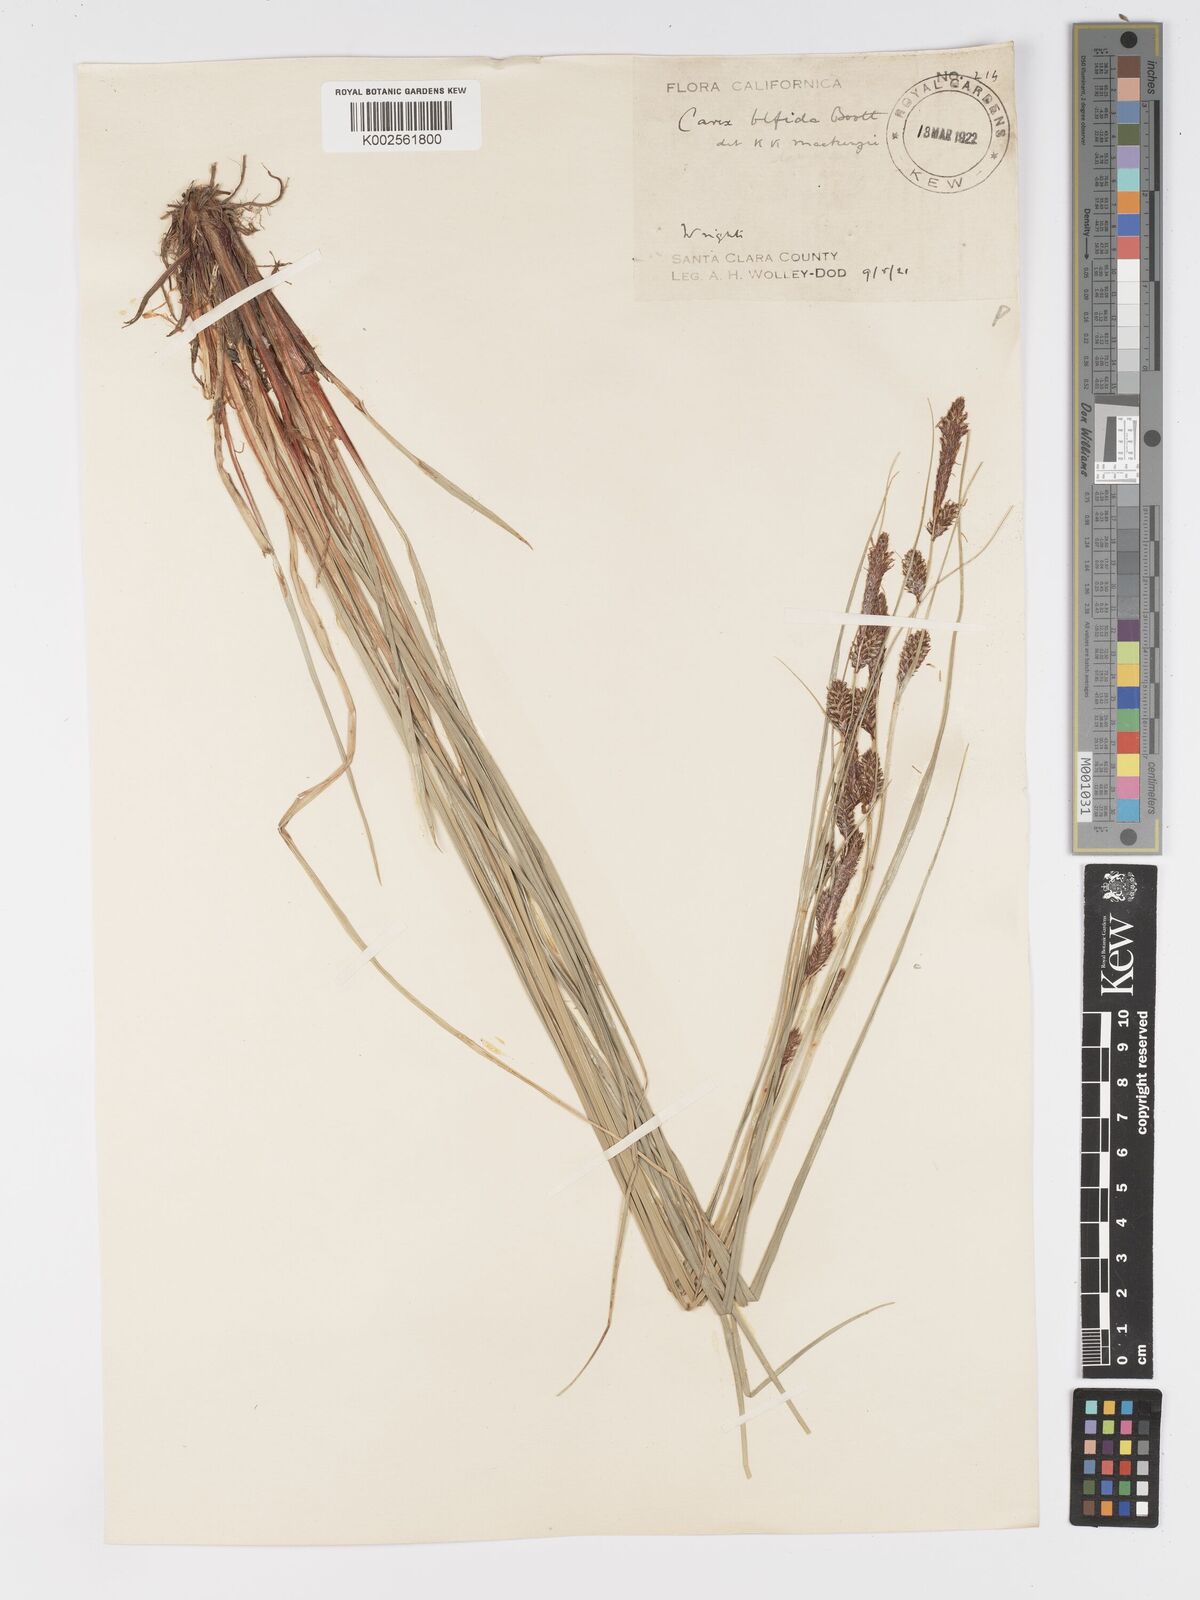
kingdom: Plantae
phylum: Tracheophyta
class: Liliopsida
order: Poales
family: Cyperaceae
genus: Carex
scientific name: Carex serratodens
